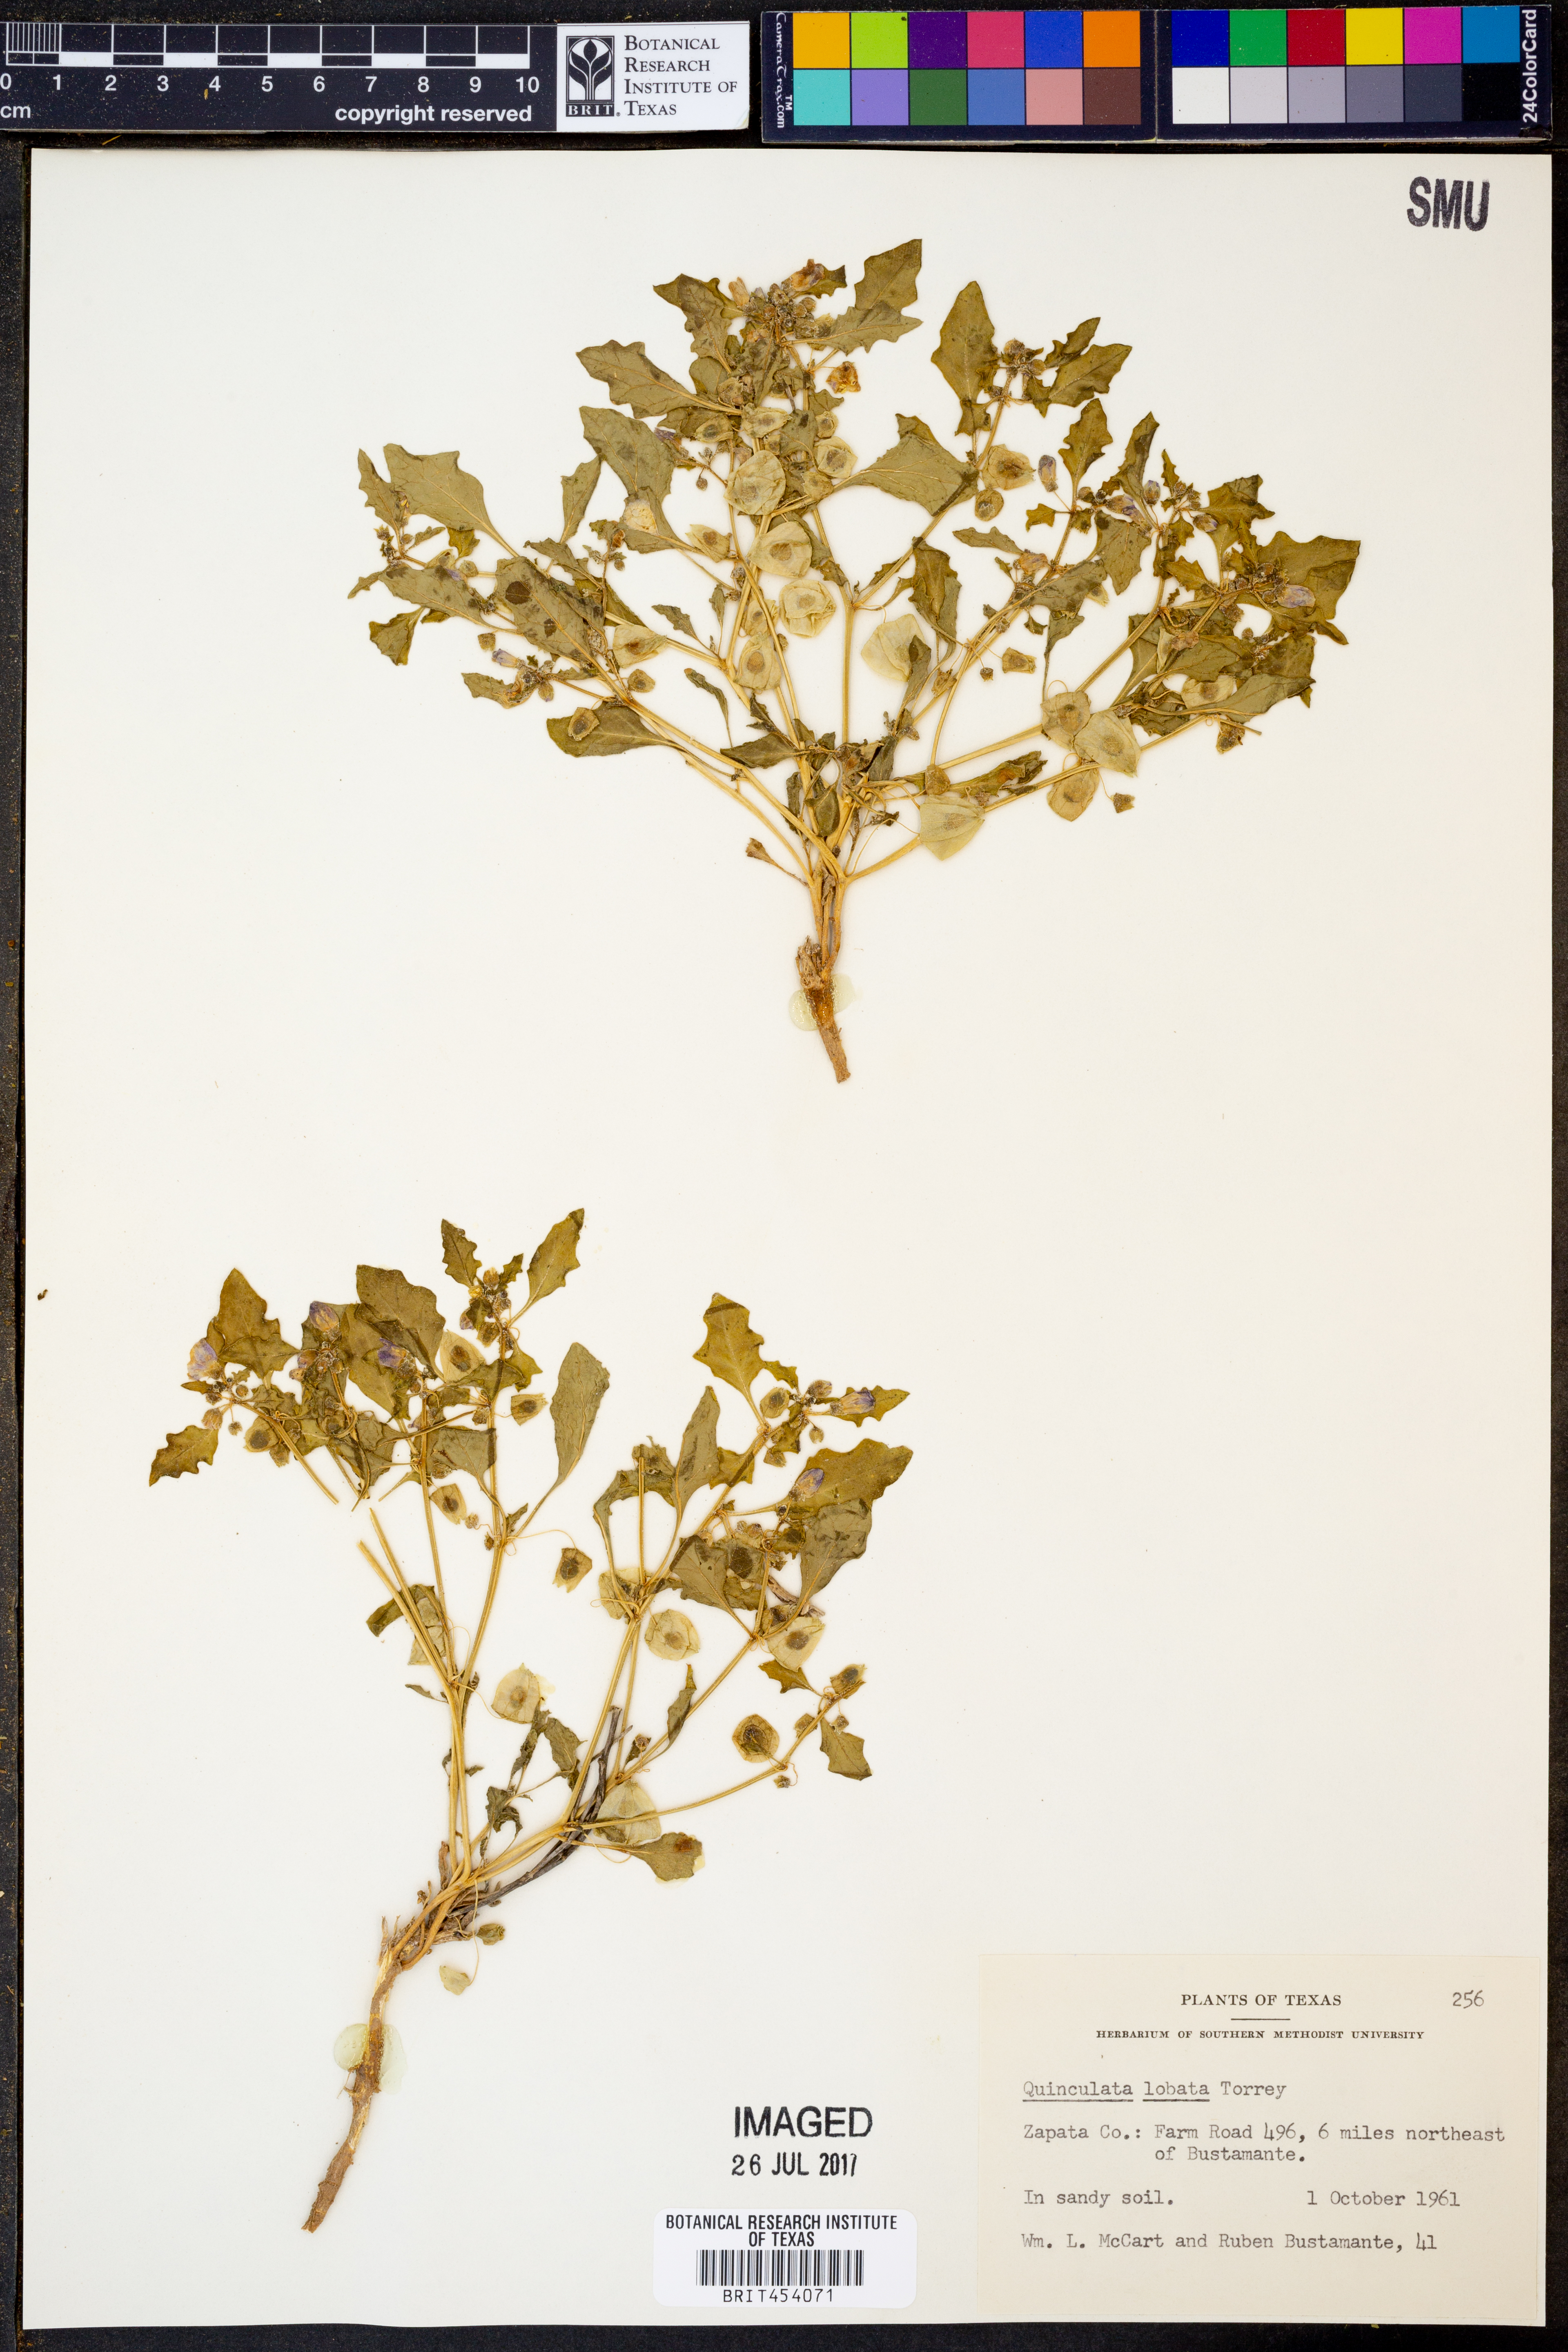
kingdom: Plantae
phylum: Tracheophyta
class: Magnoliopsida
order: Solanales
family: Solanaceae
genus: Quincula
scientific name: Quincula lobata
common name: Purple-ground-cherry
